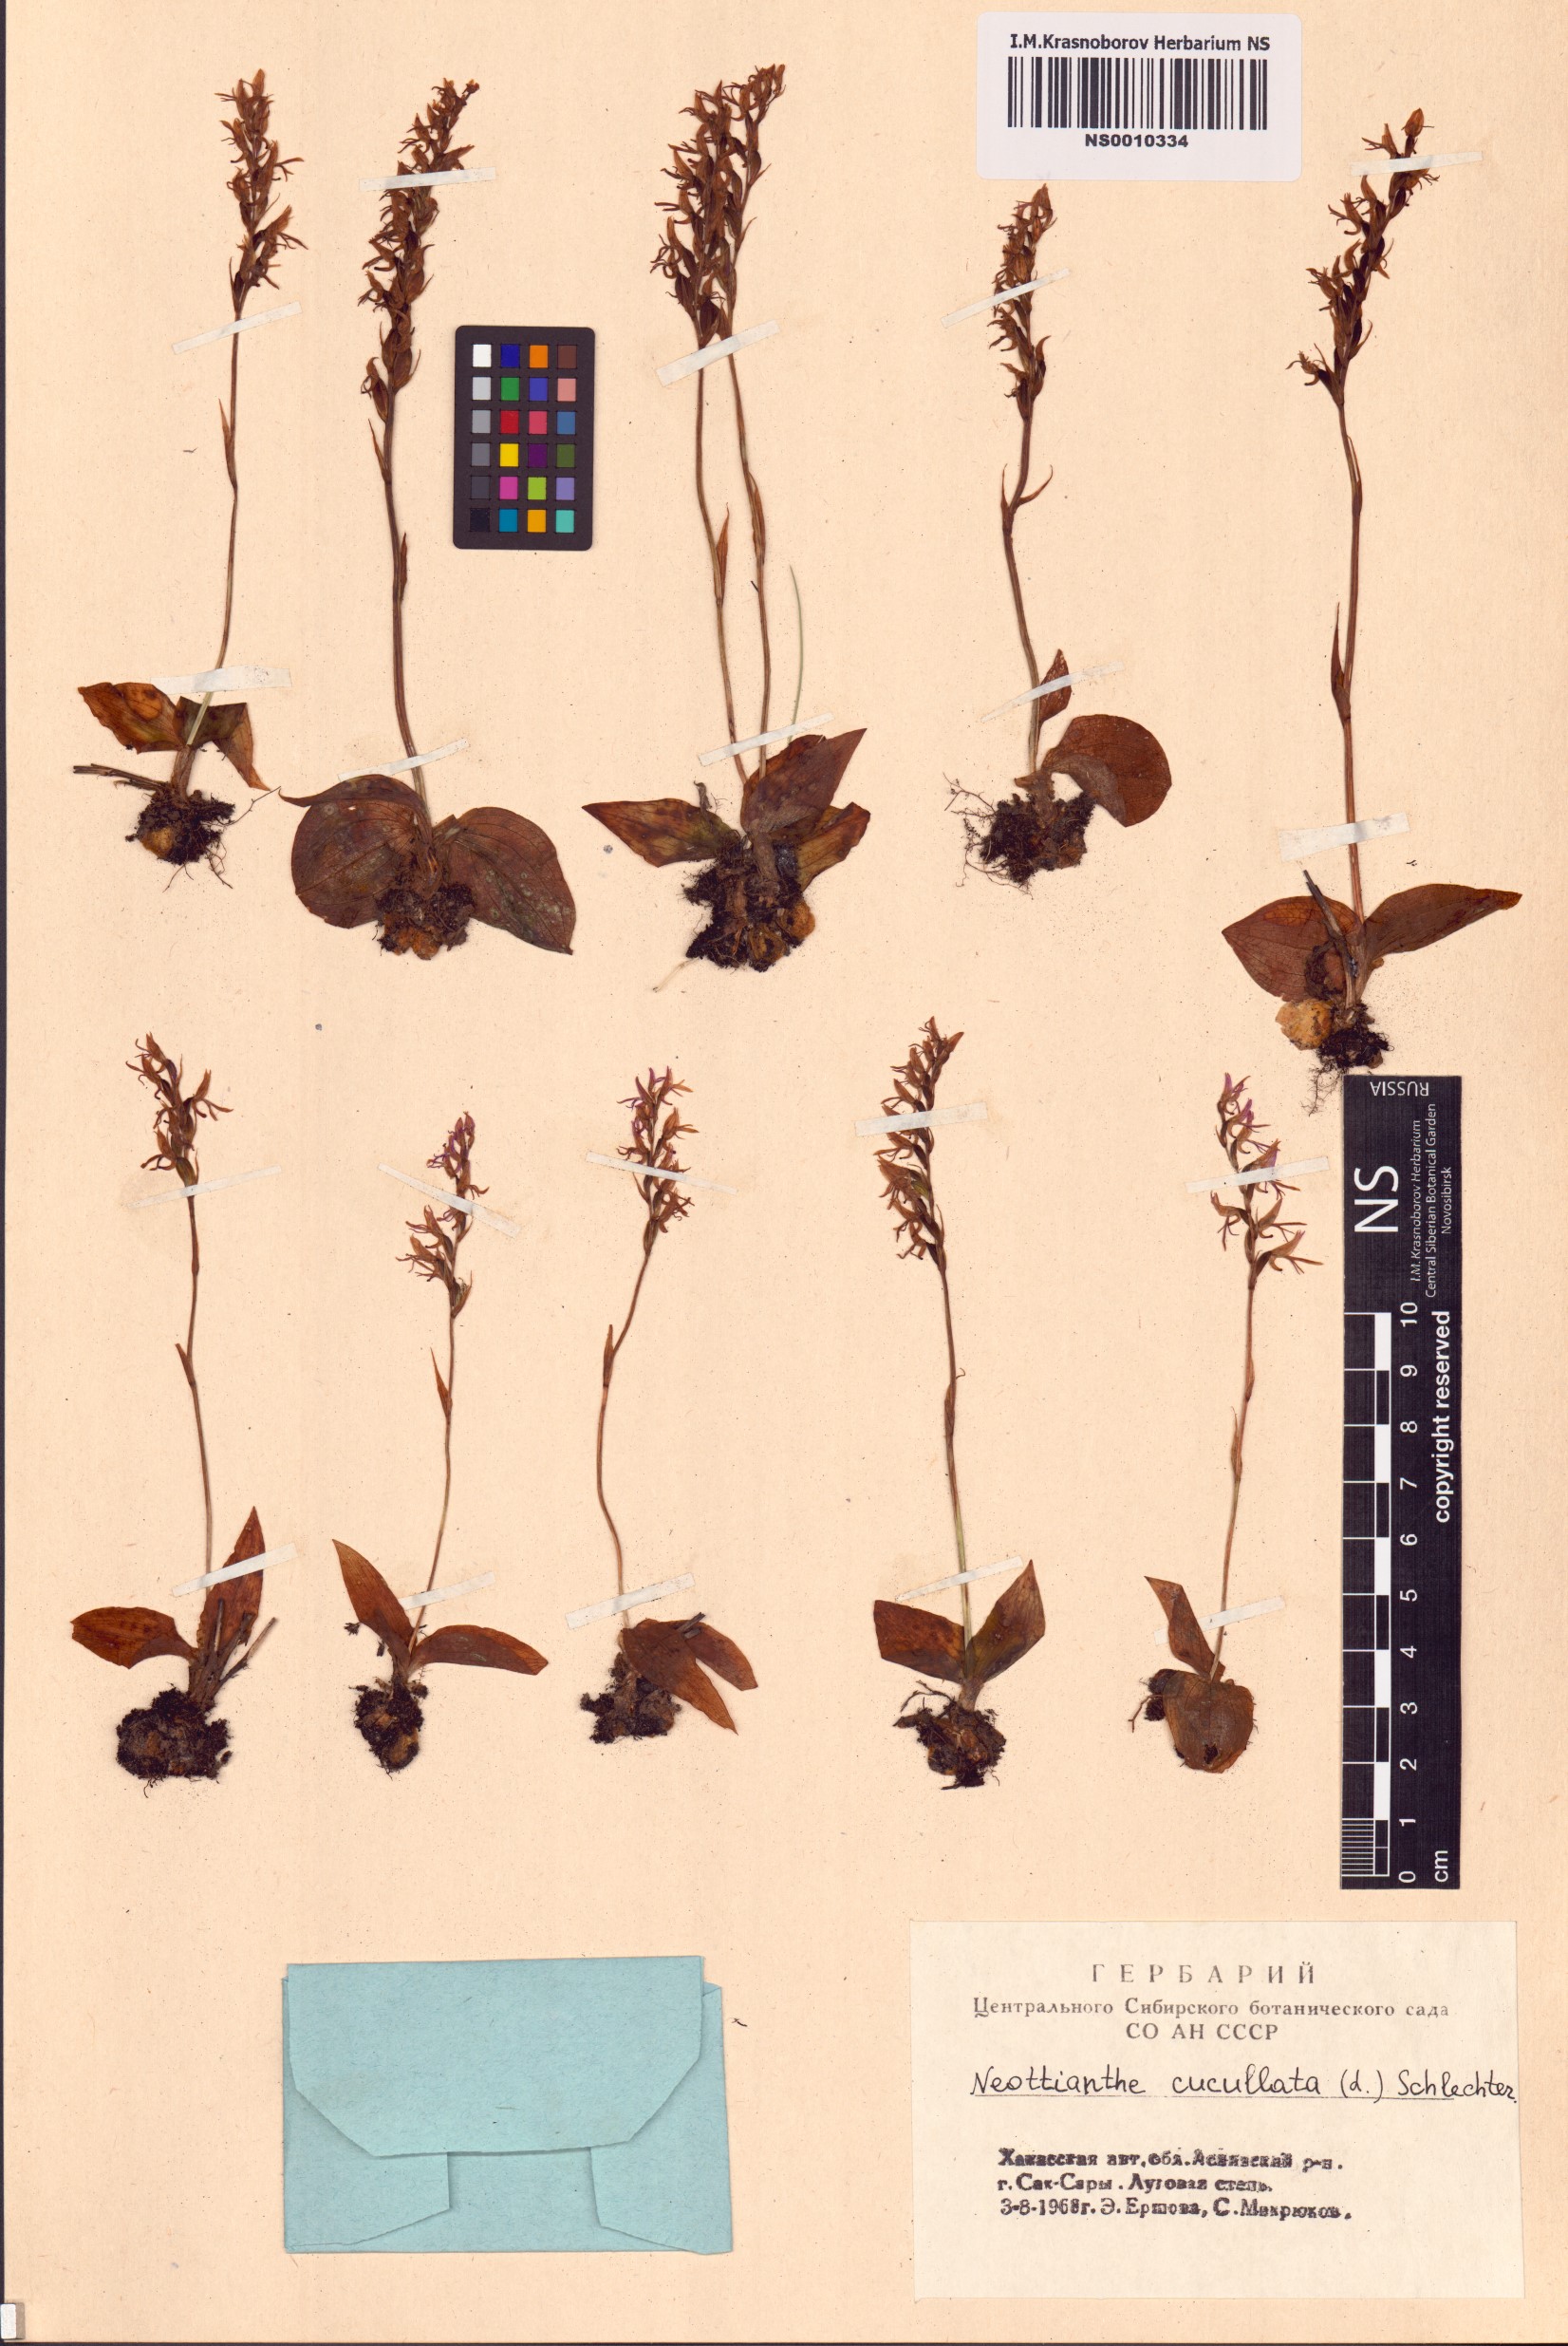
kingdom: Plantae
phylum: Tracheophyta
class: Liliopsida
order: Asparagales
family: Orchidaceae
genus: Hemipilia
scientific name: Hemipilia cucullata
